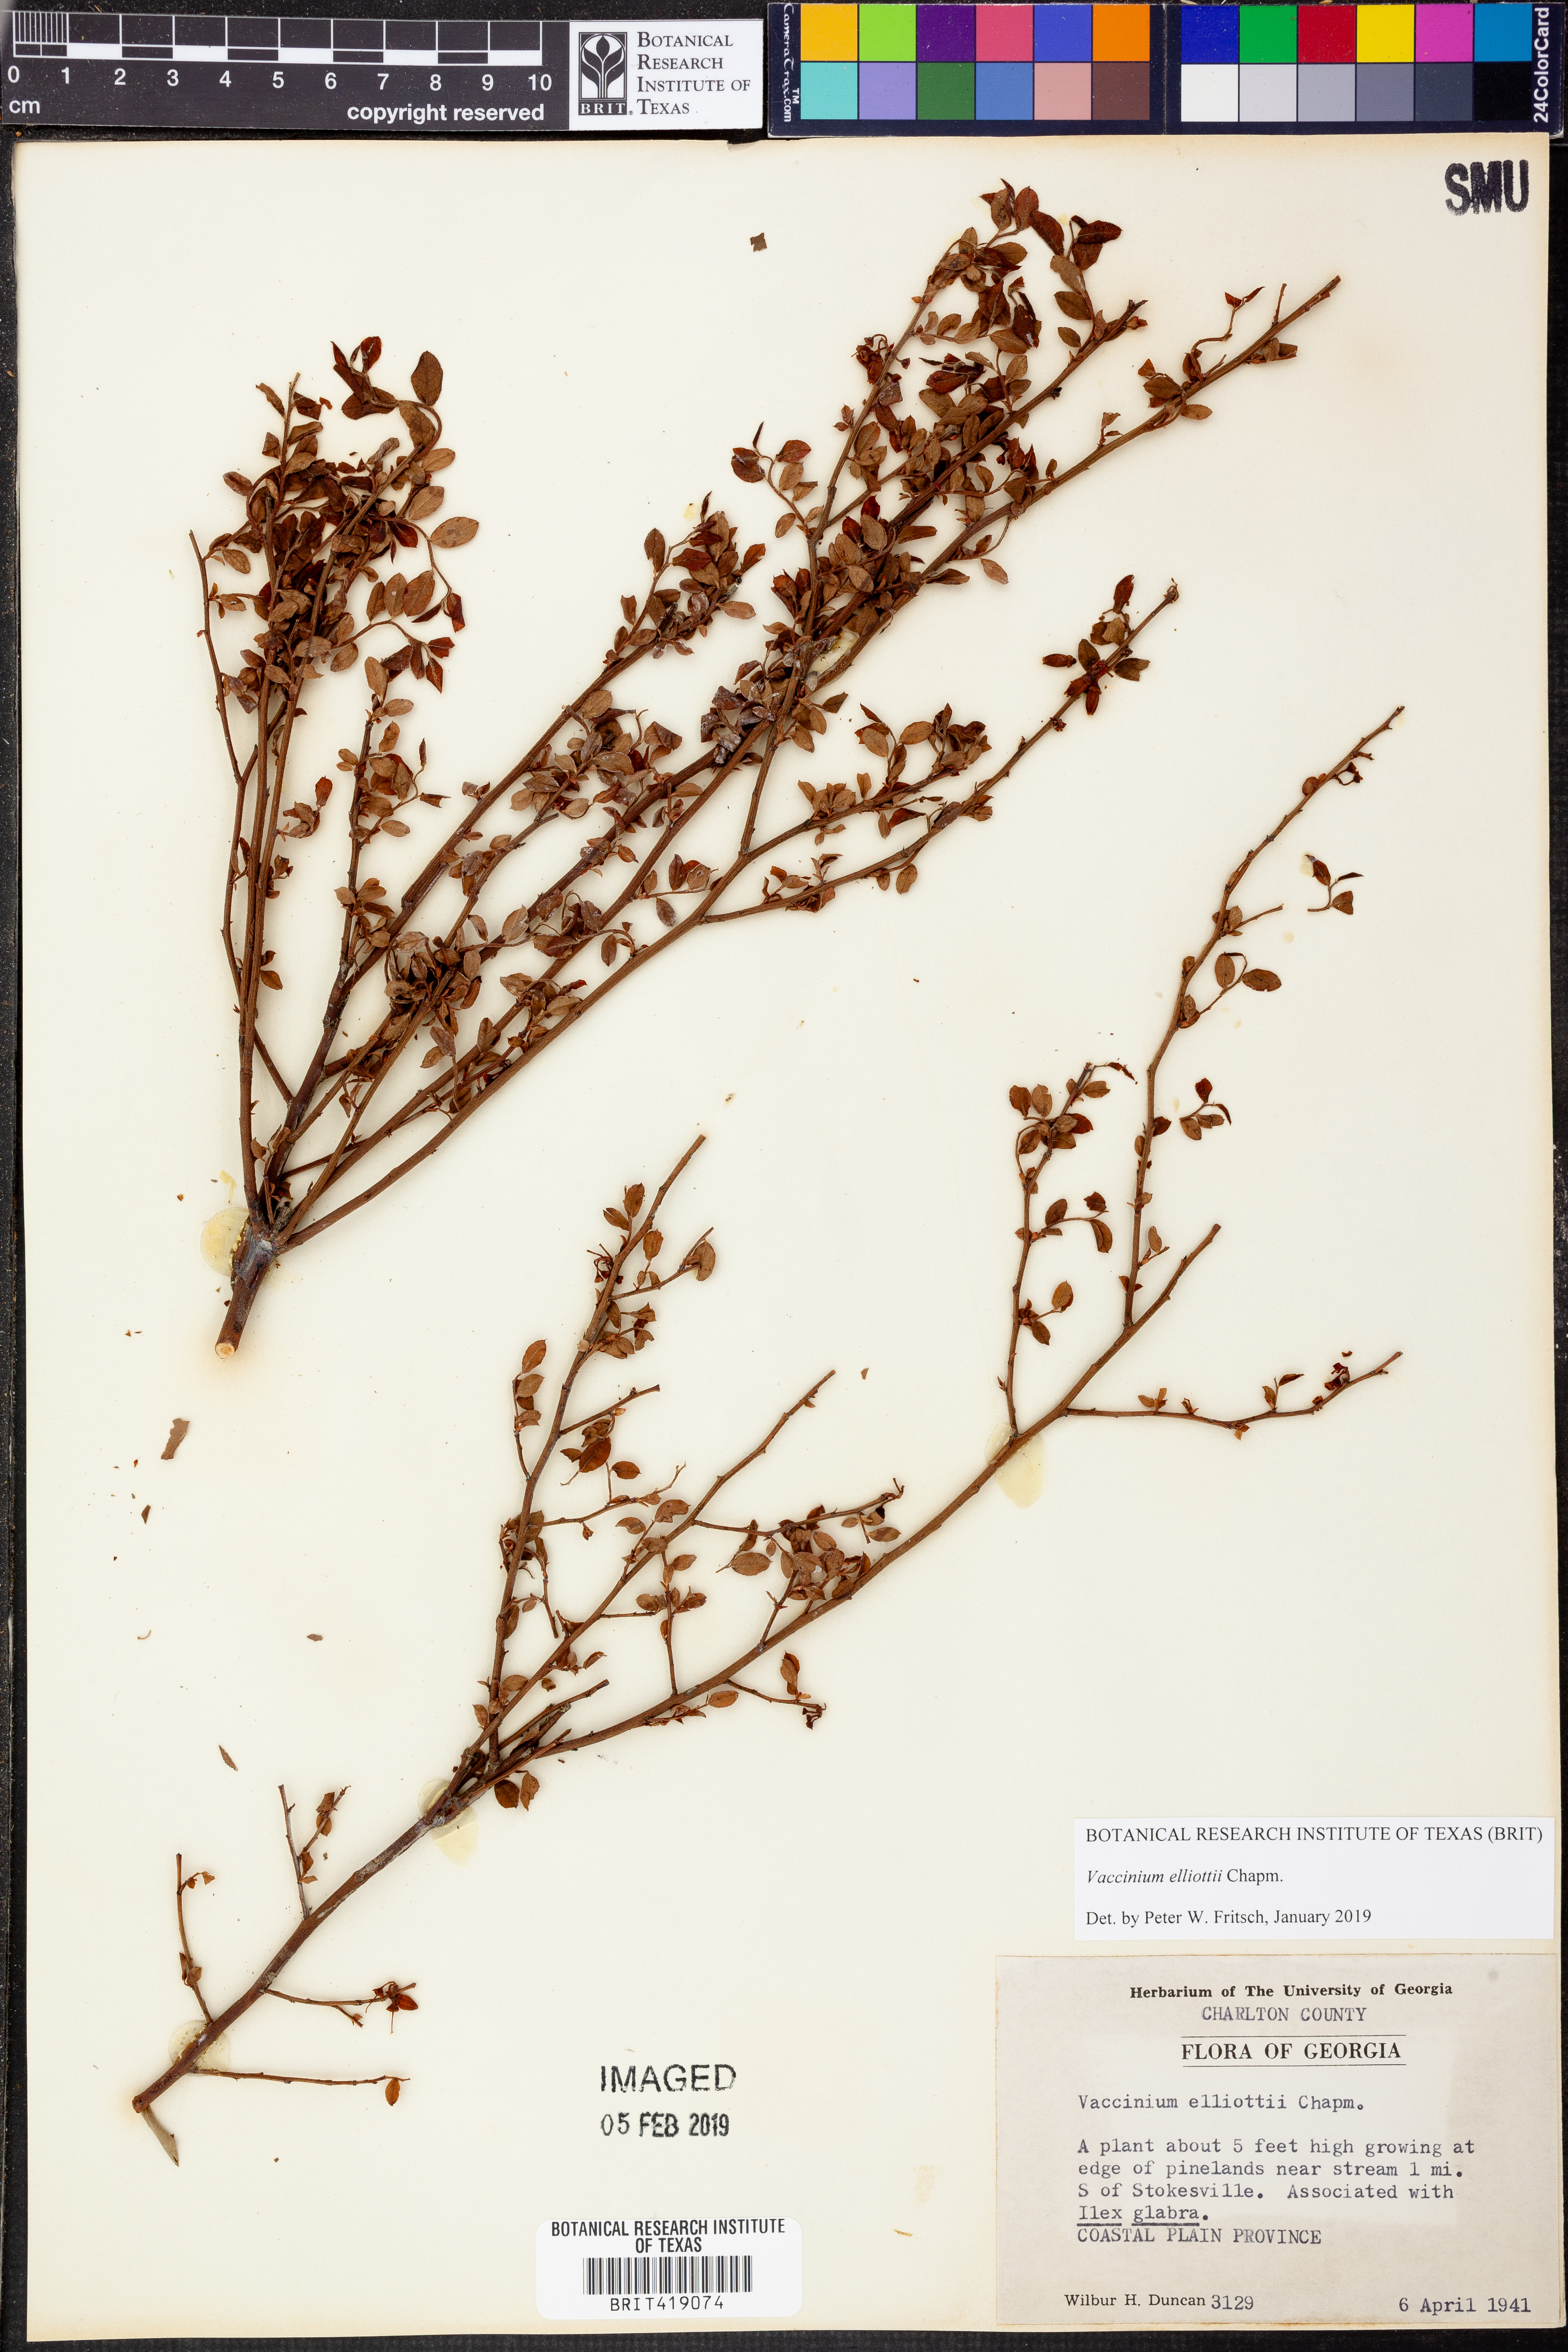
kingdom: Plantae
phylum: Tracheophyta
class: Magnoliopsida
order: Ericales
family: Ericaceae
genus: Vaccinium
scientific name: Vaccinium corymbosum
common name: Blueberry
